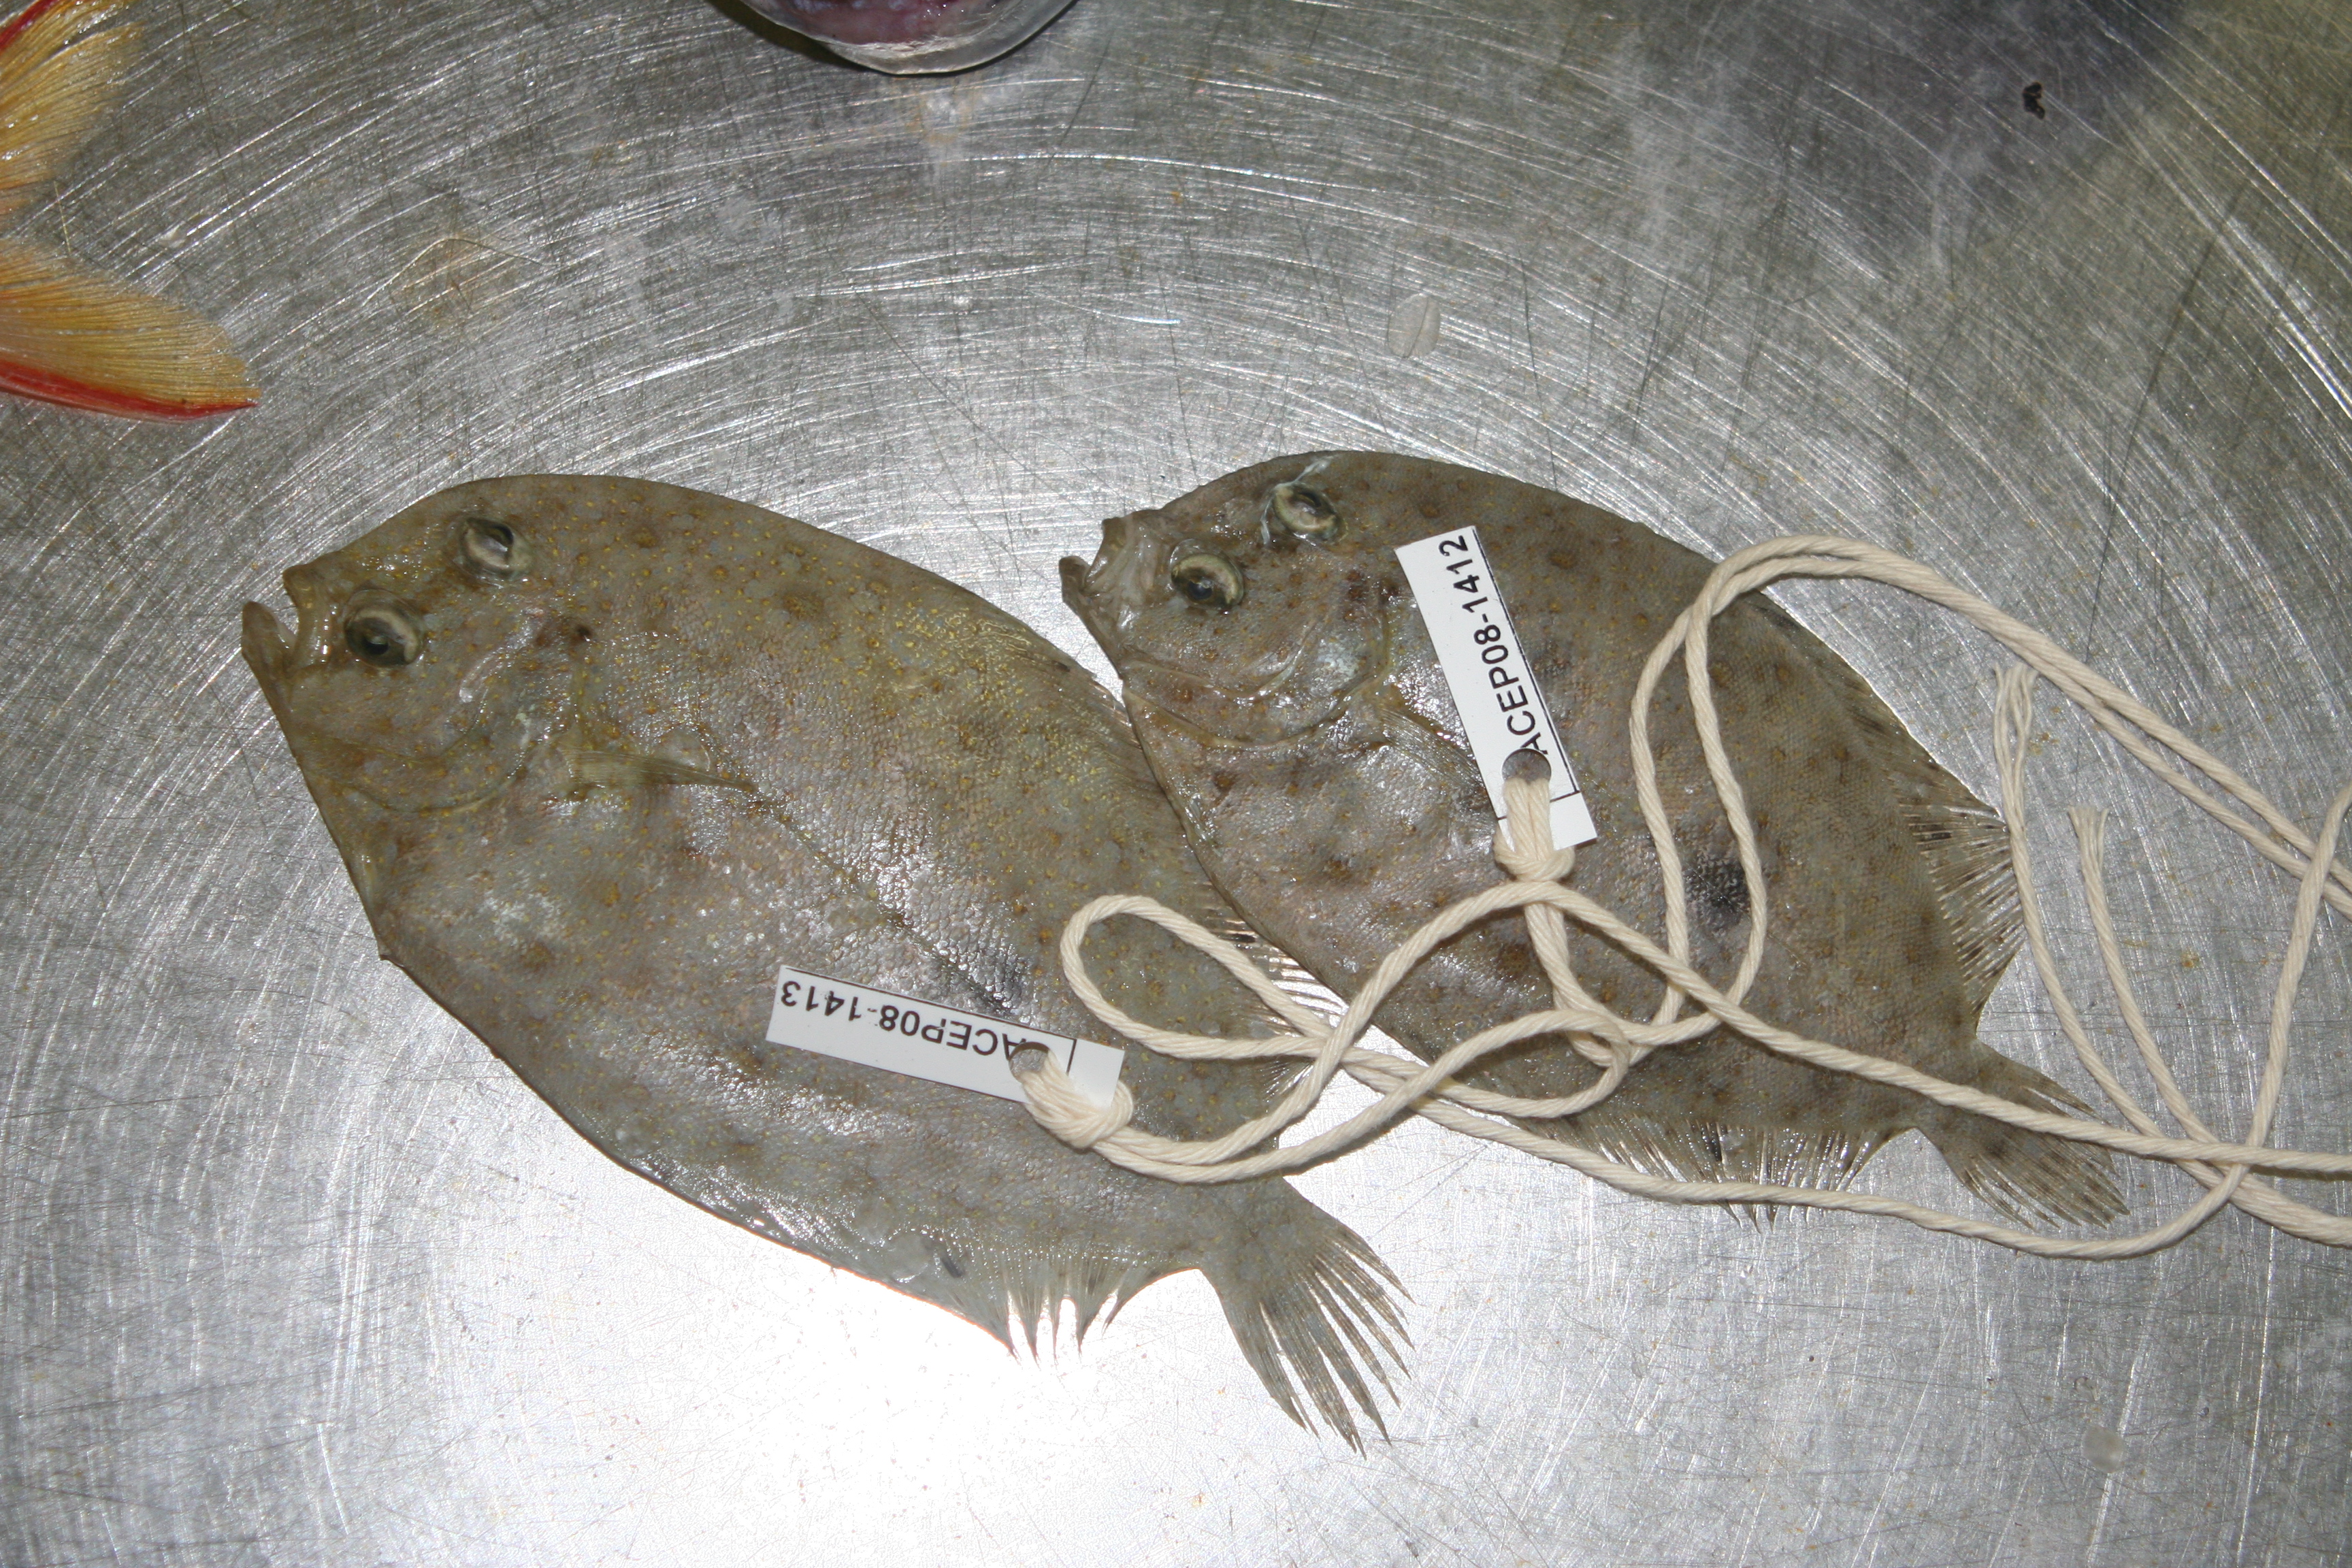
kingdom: Animalia
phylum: Chordata
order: Pleuronectiformes
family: Bothidae
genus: Bothus
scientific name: Bothus myriaster
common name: Disc flounder
